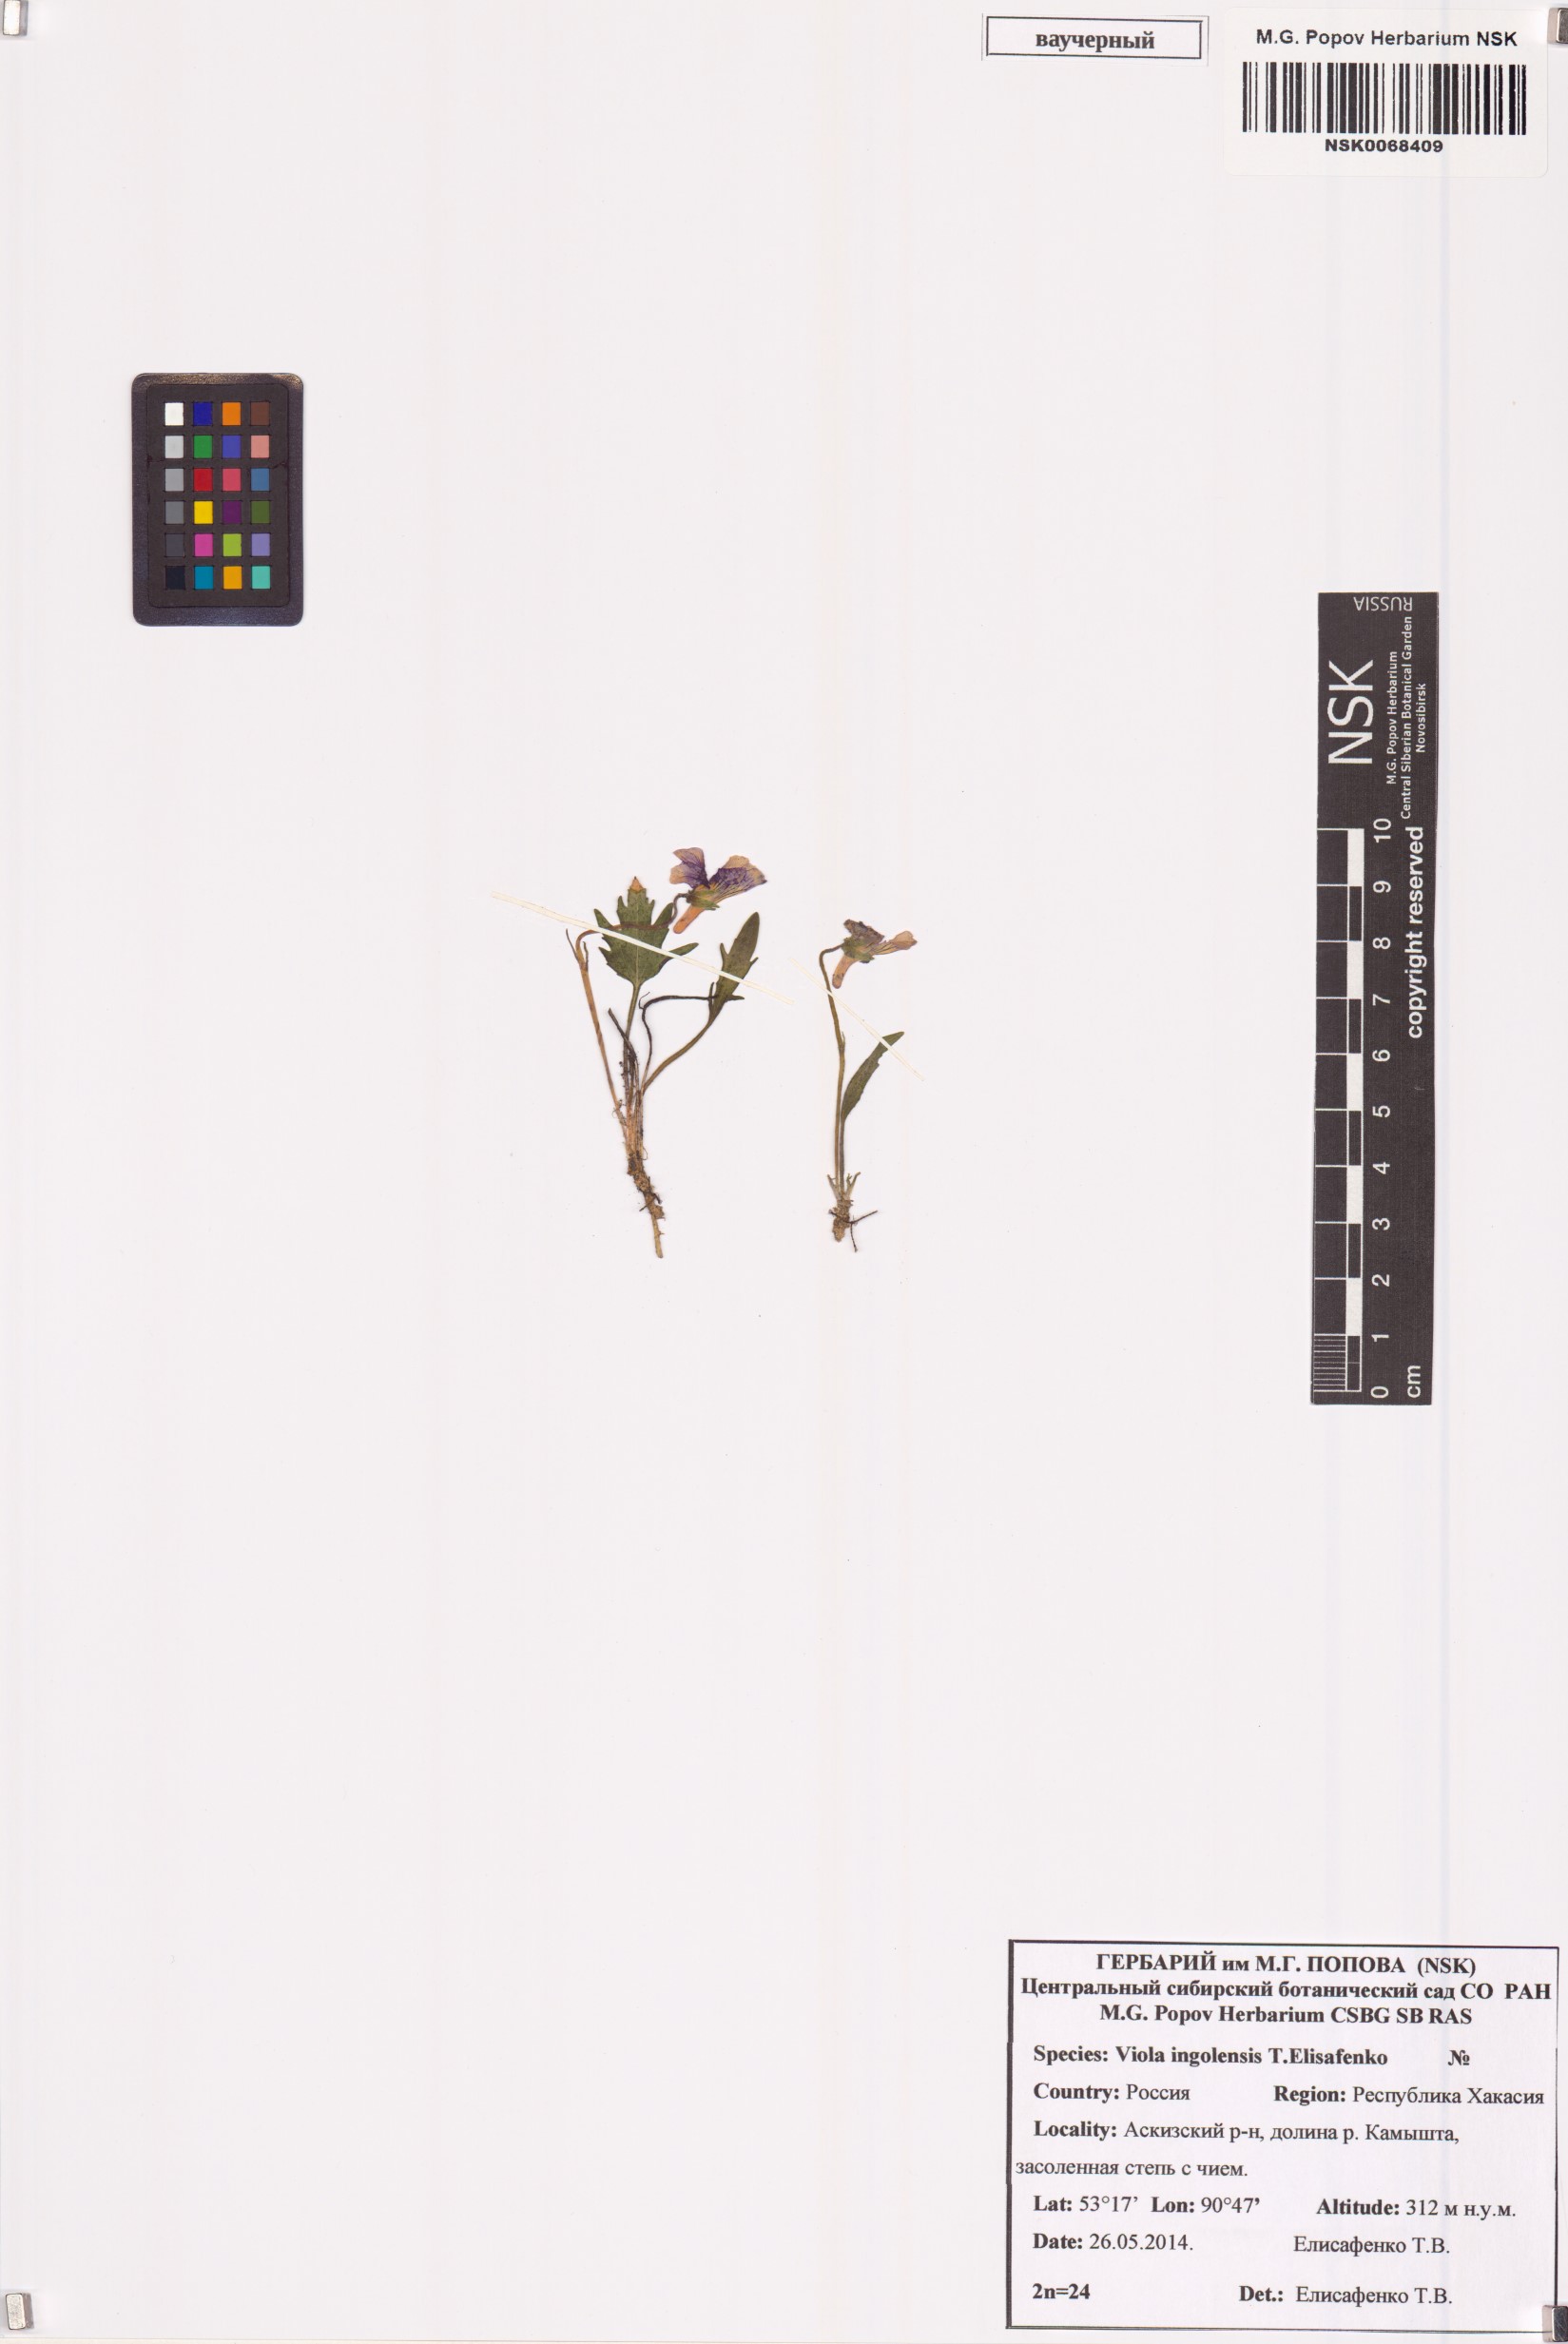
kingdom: Plantae
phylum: Tracheophyta
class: Magnoliopsida
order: Malpighiales
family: Violaceae
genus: Viola
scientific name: Viola ingolensis
